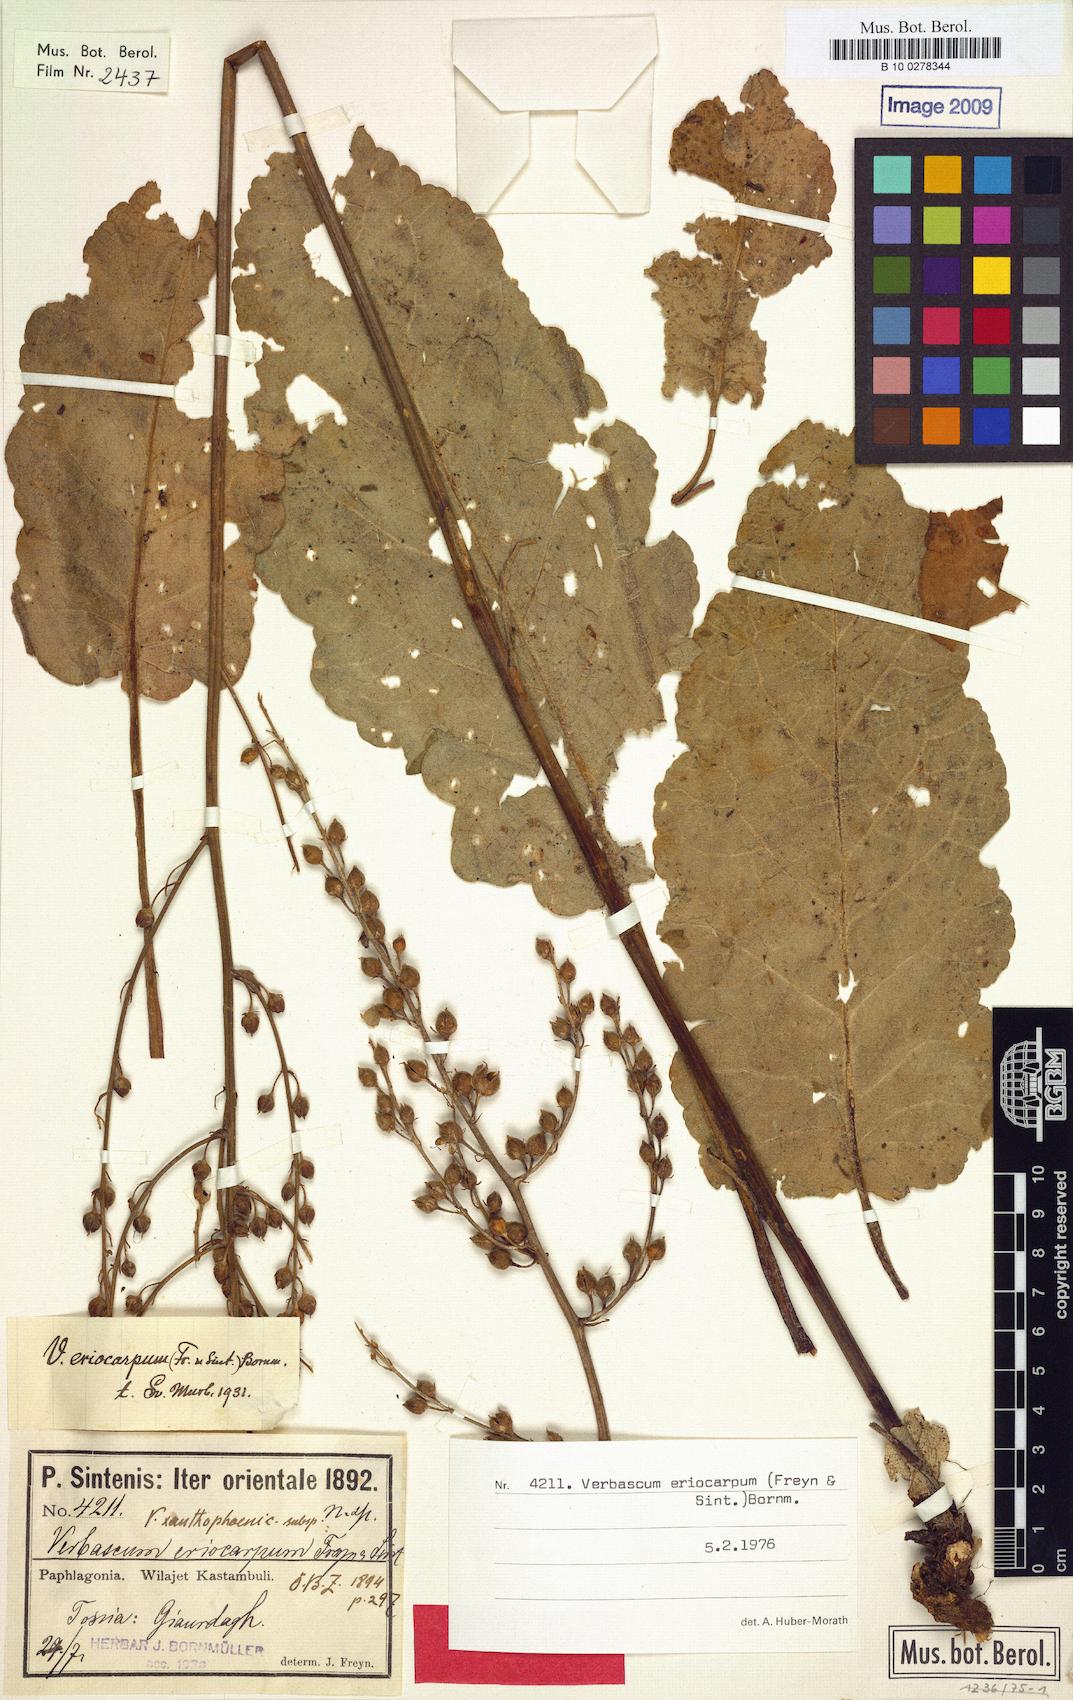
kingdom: Plantae
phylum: Tracheophyta
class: Magnoliopsida
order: Lamiales
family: Scrophulariaceae
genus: Verbascum
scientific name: Verbascum eriocarpum
